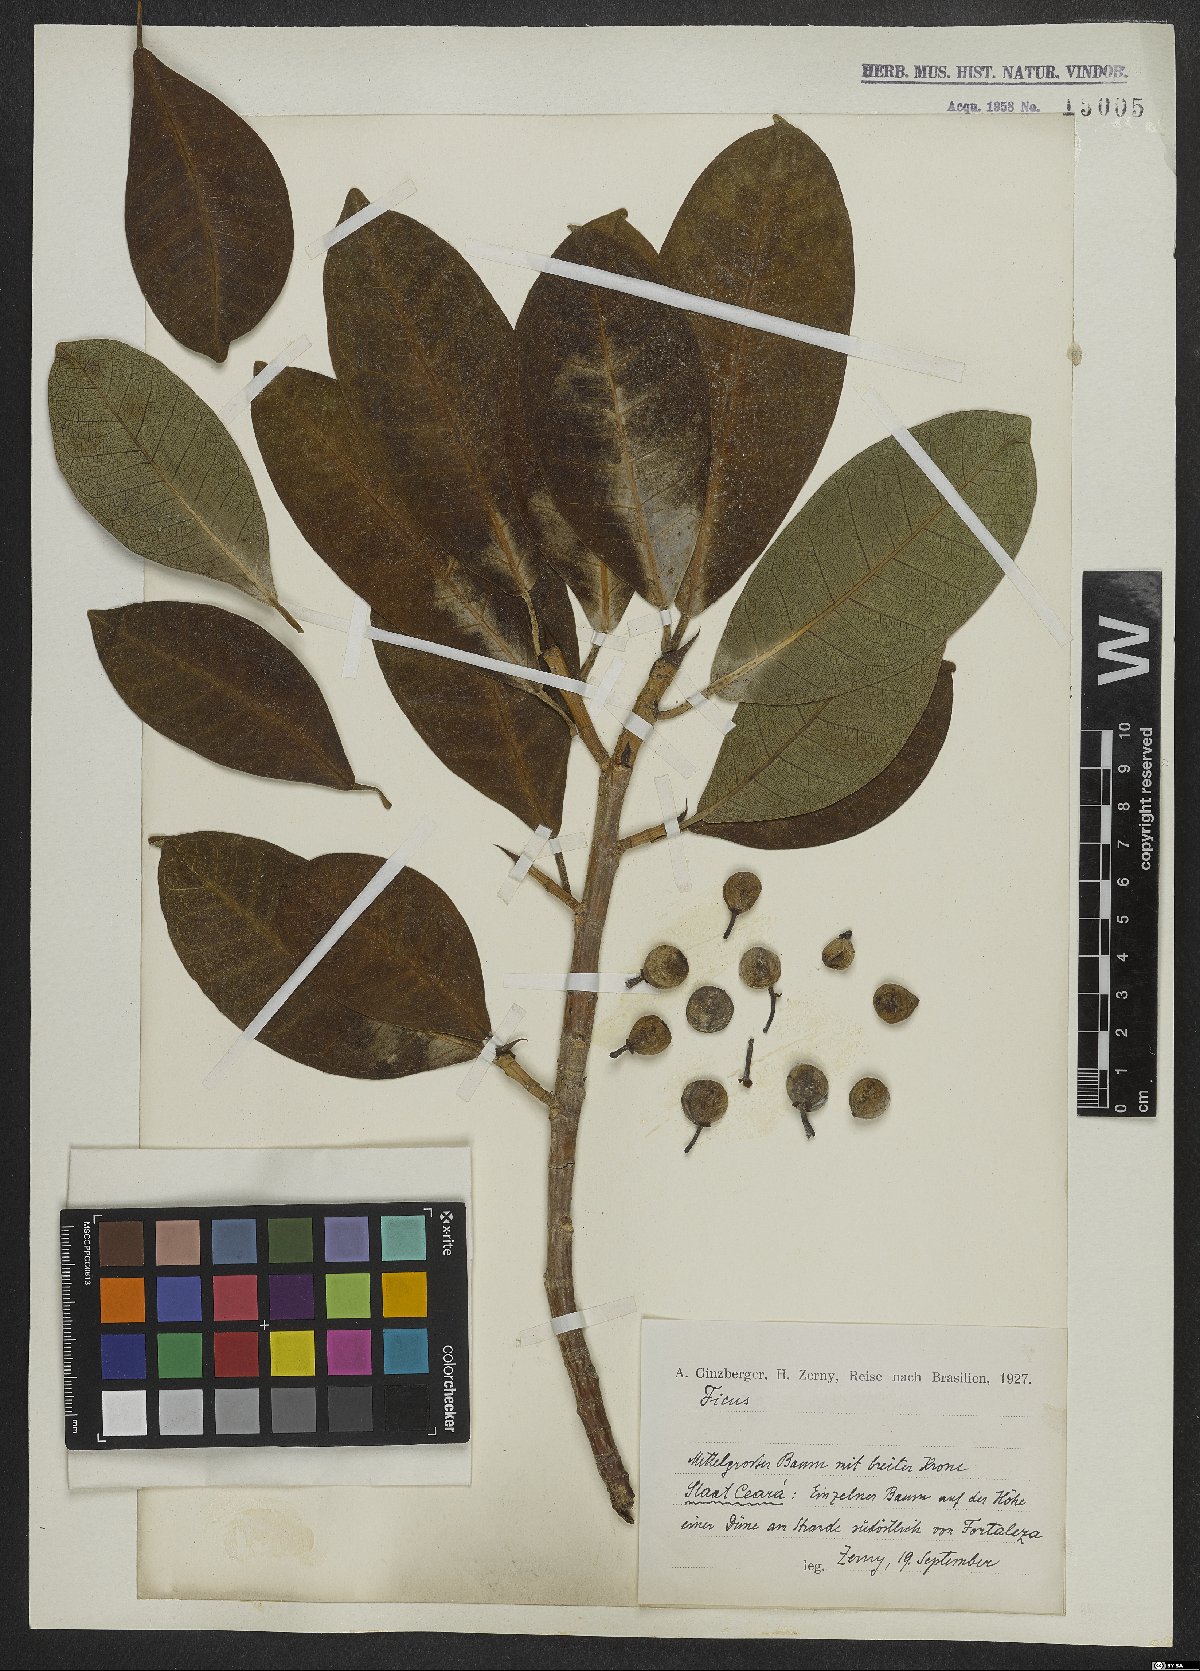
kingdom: Plantae
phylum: Tracheophyta
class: Magnoliopsida
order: Rosales
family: Moraceae
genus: Ficus
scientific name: Ficus
